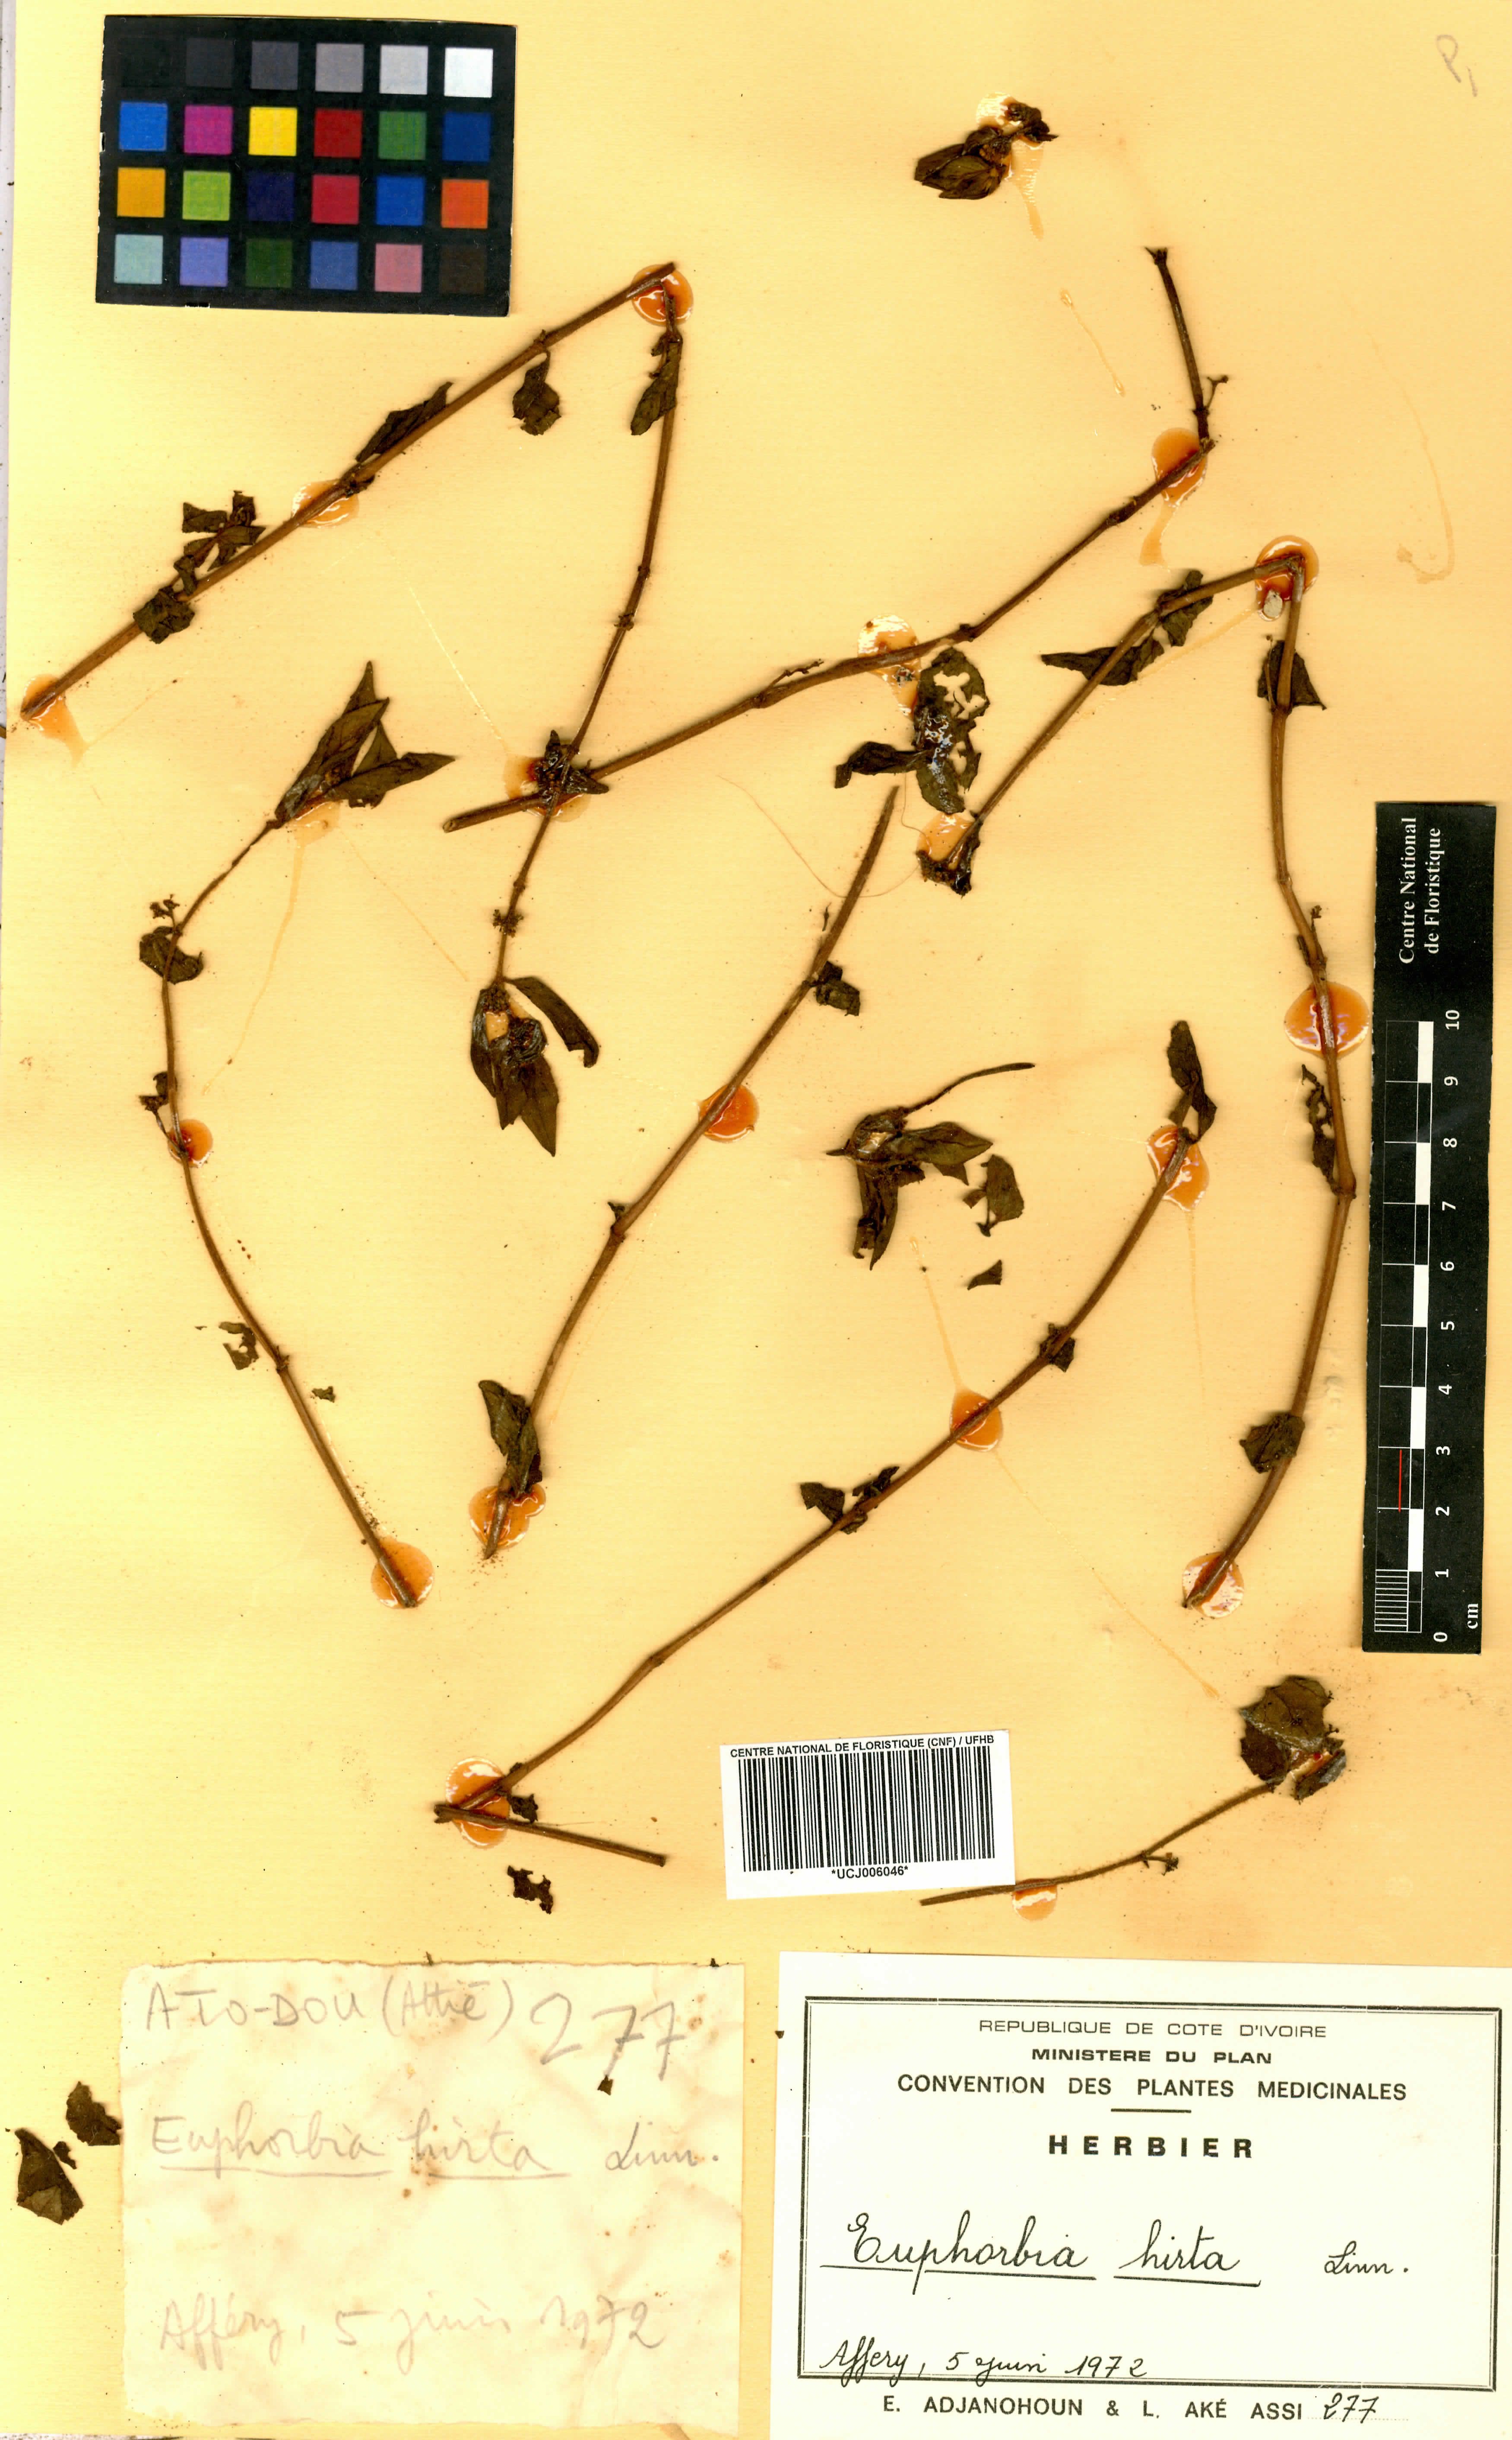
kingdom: Plantae
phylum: Tracheophyta
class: Magnoliopsida
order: Malpighiales
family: Euphorbiaceae
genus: Euphorbia
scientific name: Euphorbia hirta
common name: Pillpod sandmat
